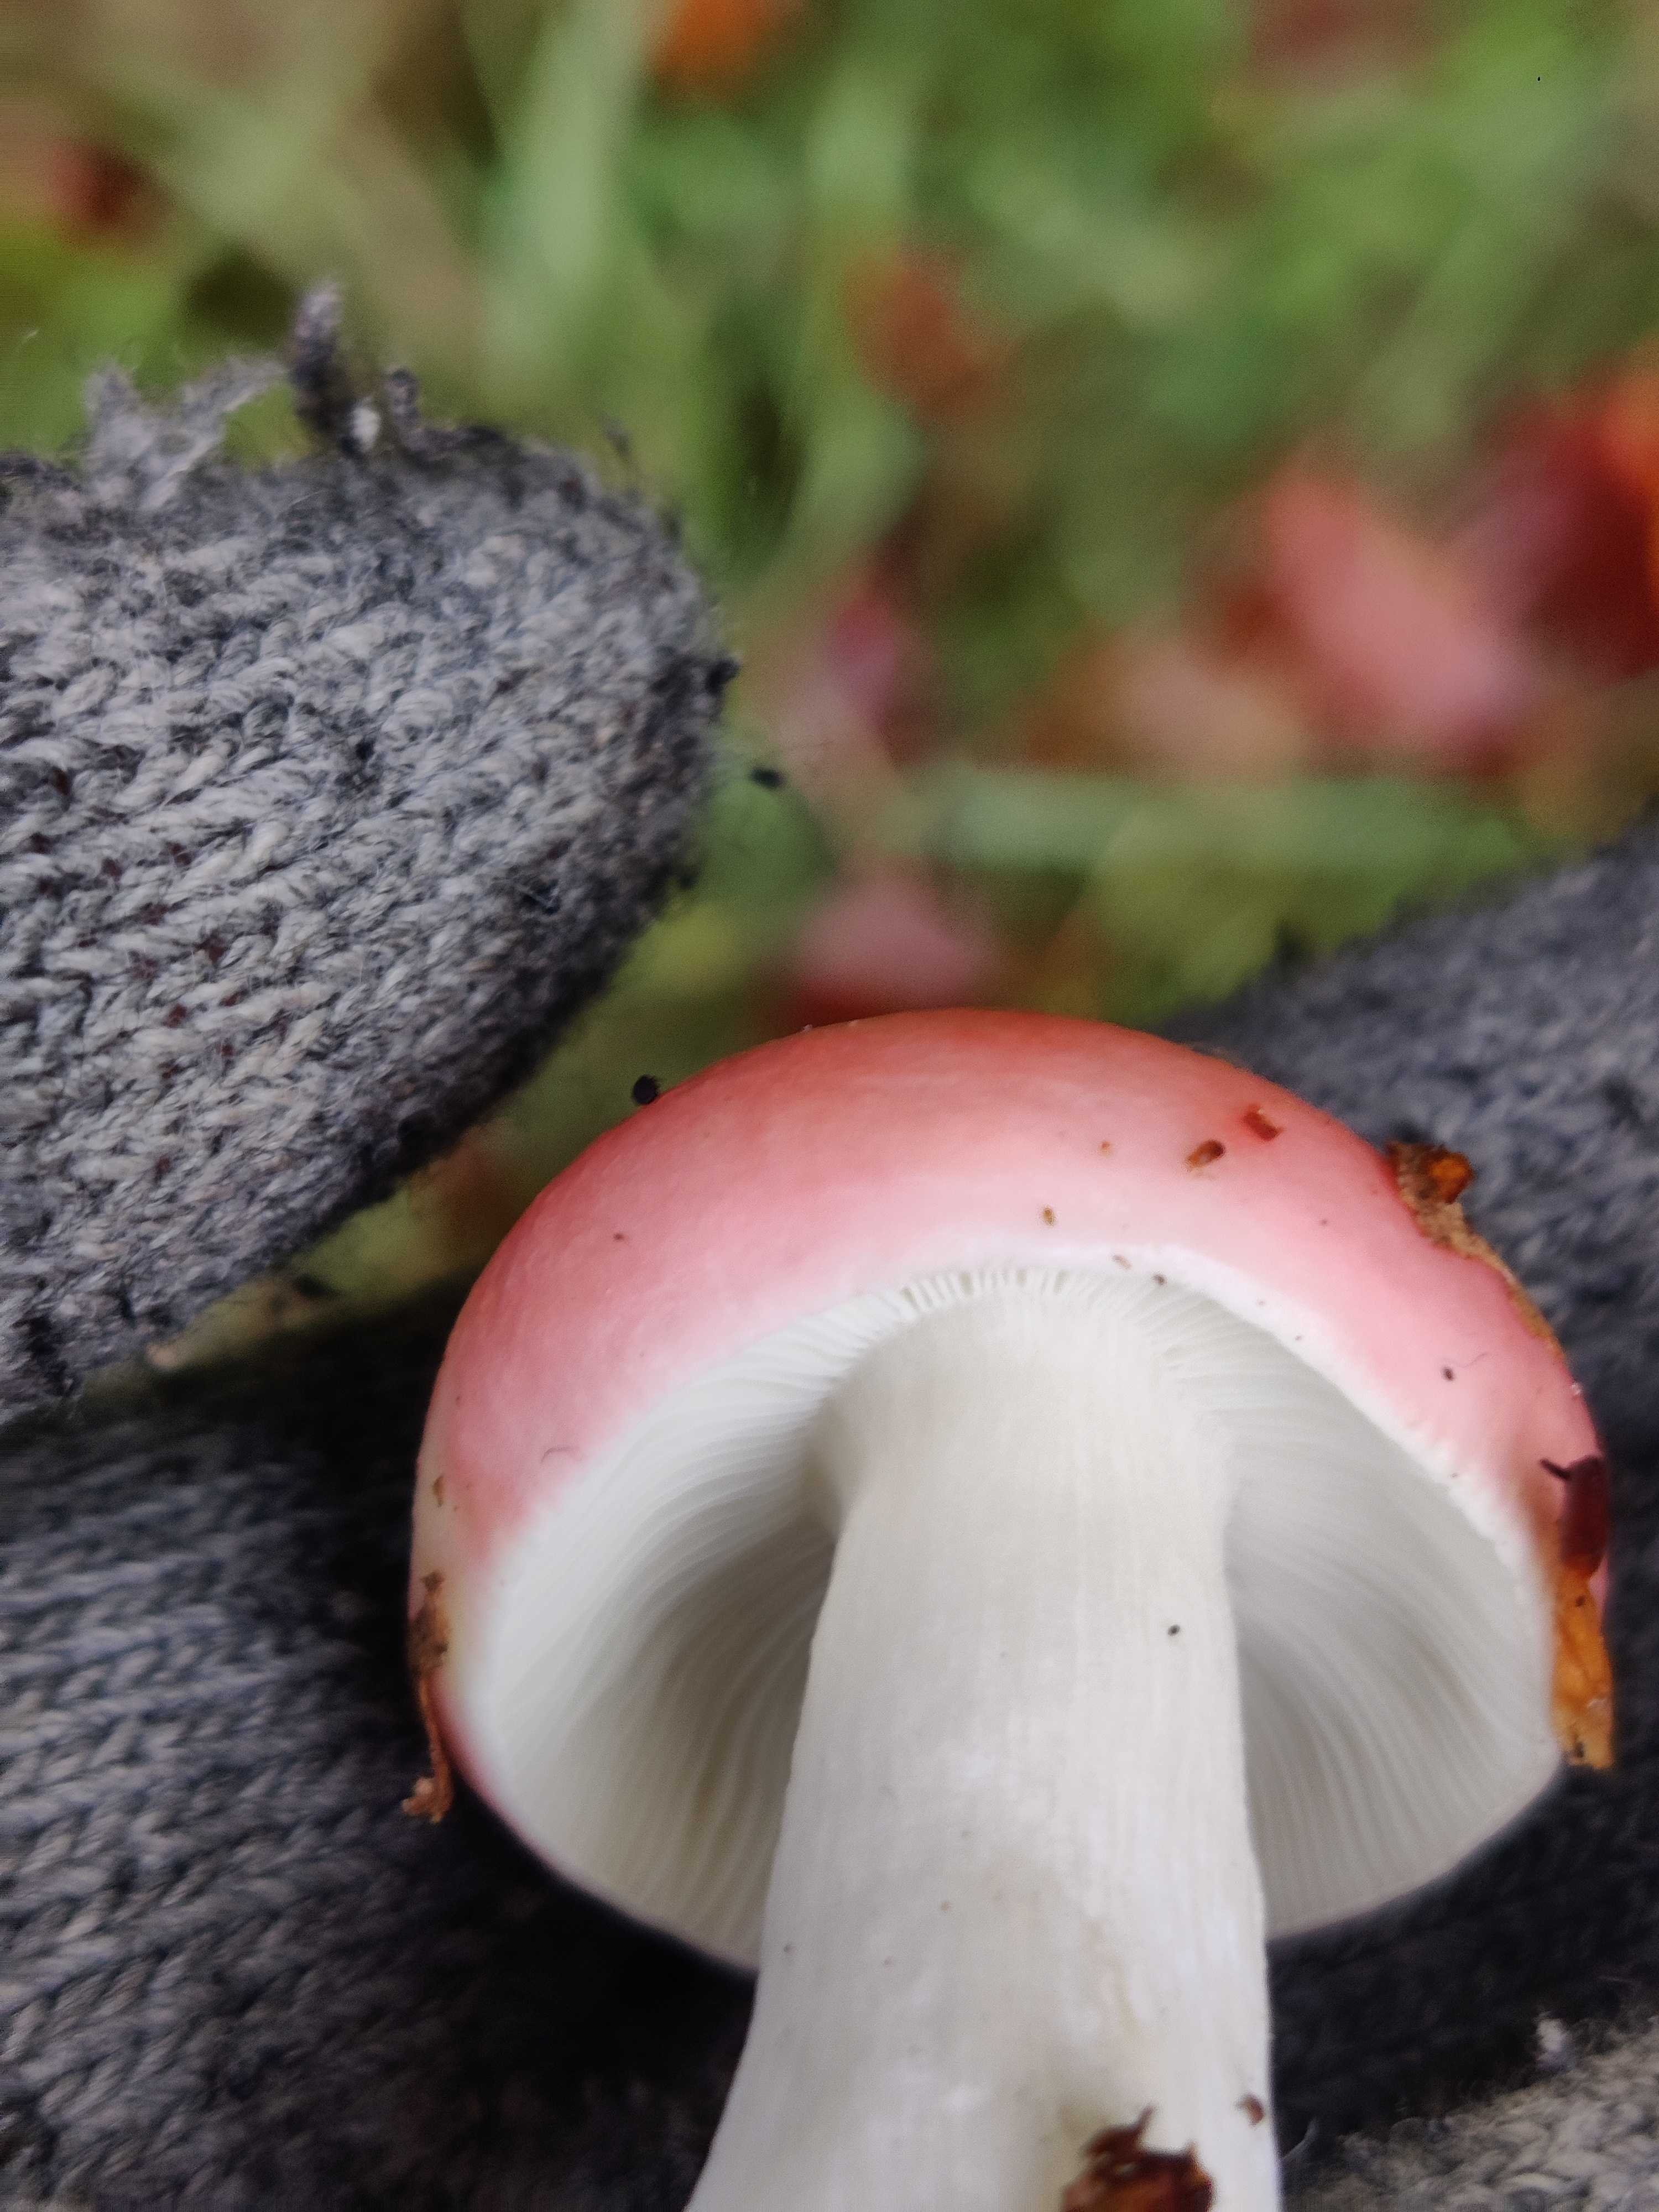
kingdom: Fungi
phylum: Basidiomycota
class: Agaricomycetes
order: Russulales
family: Russulaceae
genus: Russula
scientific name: Russula
